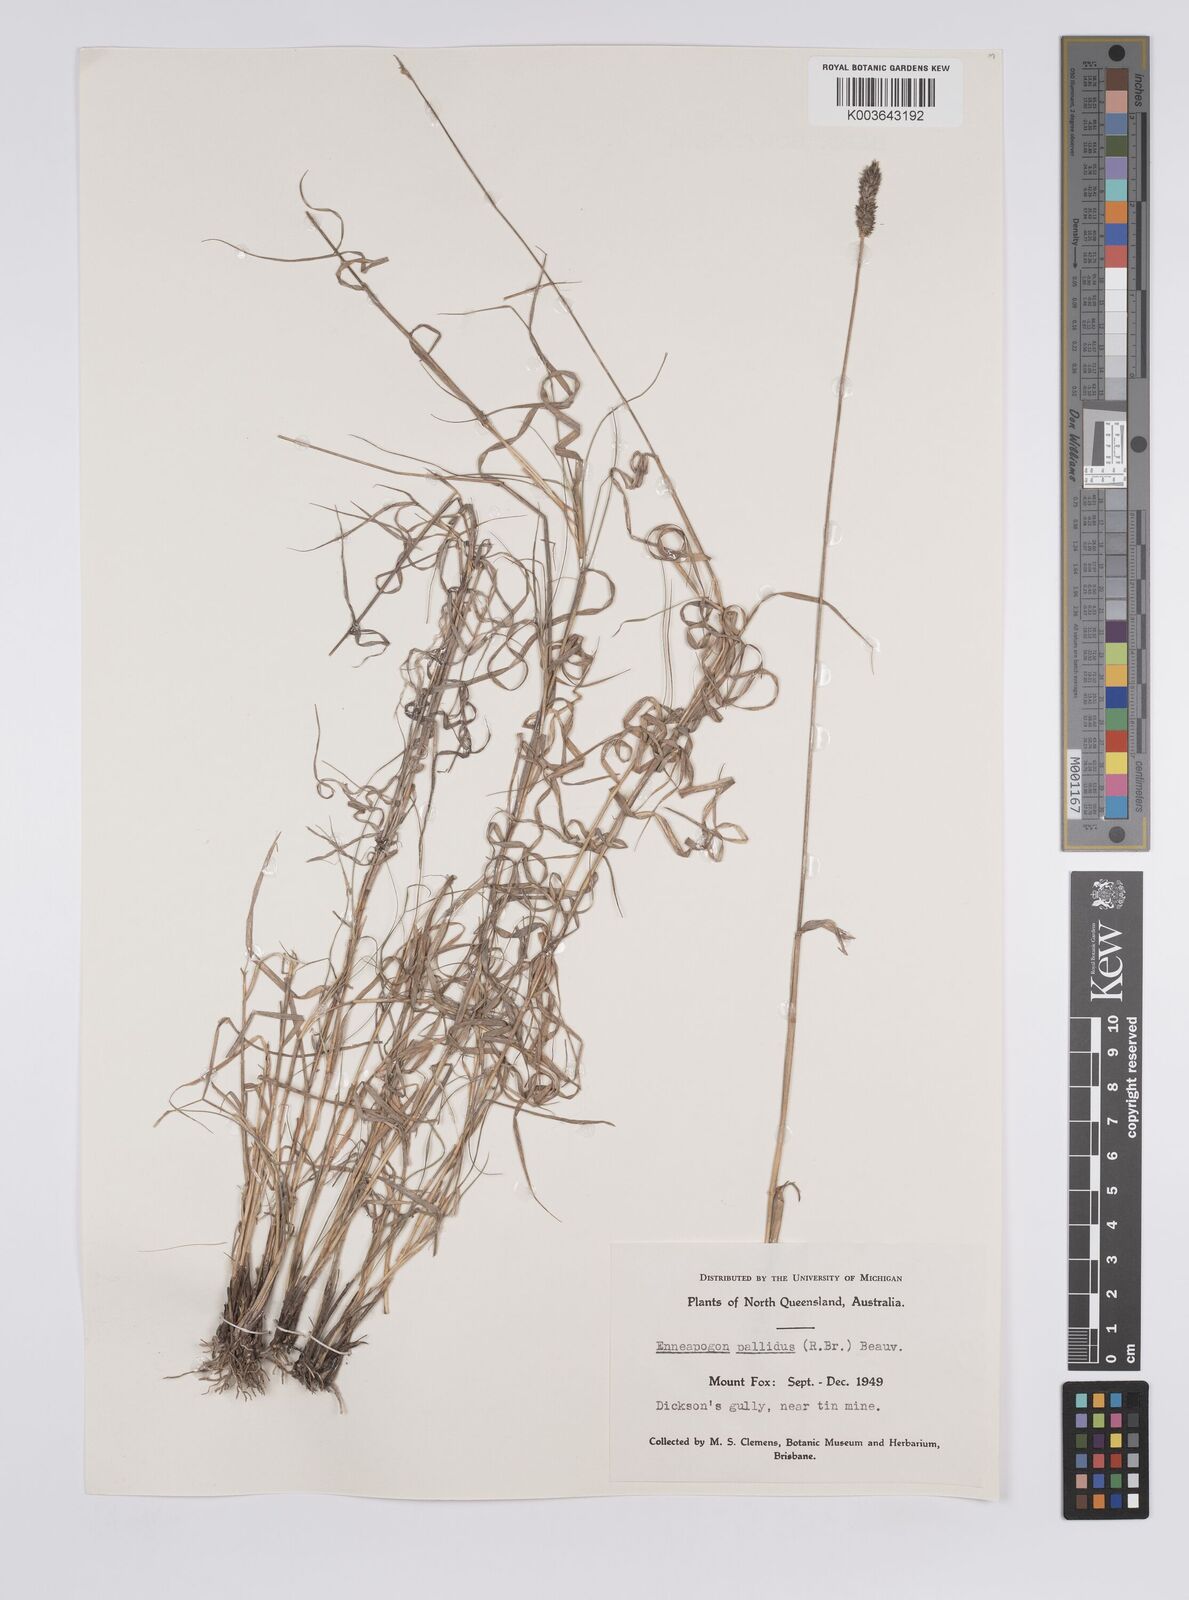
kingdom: Plantae
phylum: Tracheophyta
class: Liliopsida
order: Poales
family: Poaceae
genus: Enneapogon
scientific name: Enneapogon
